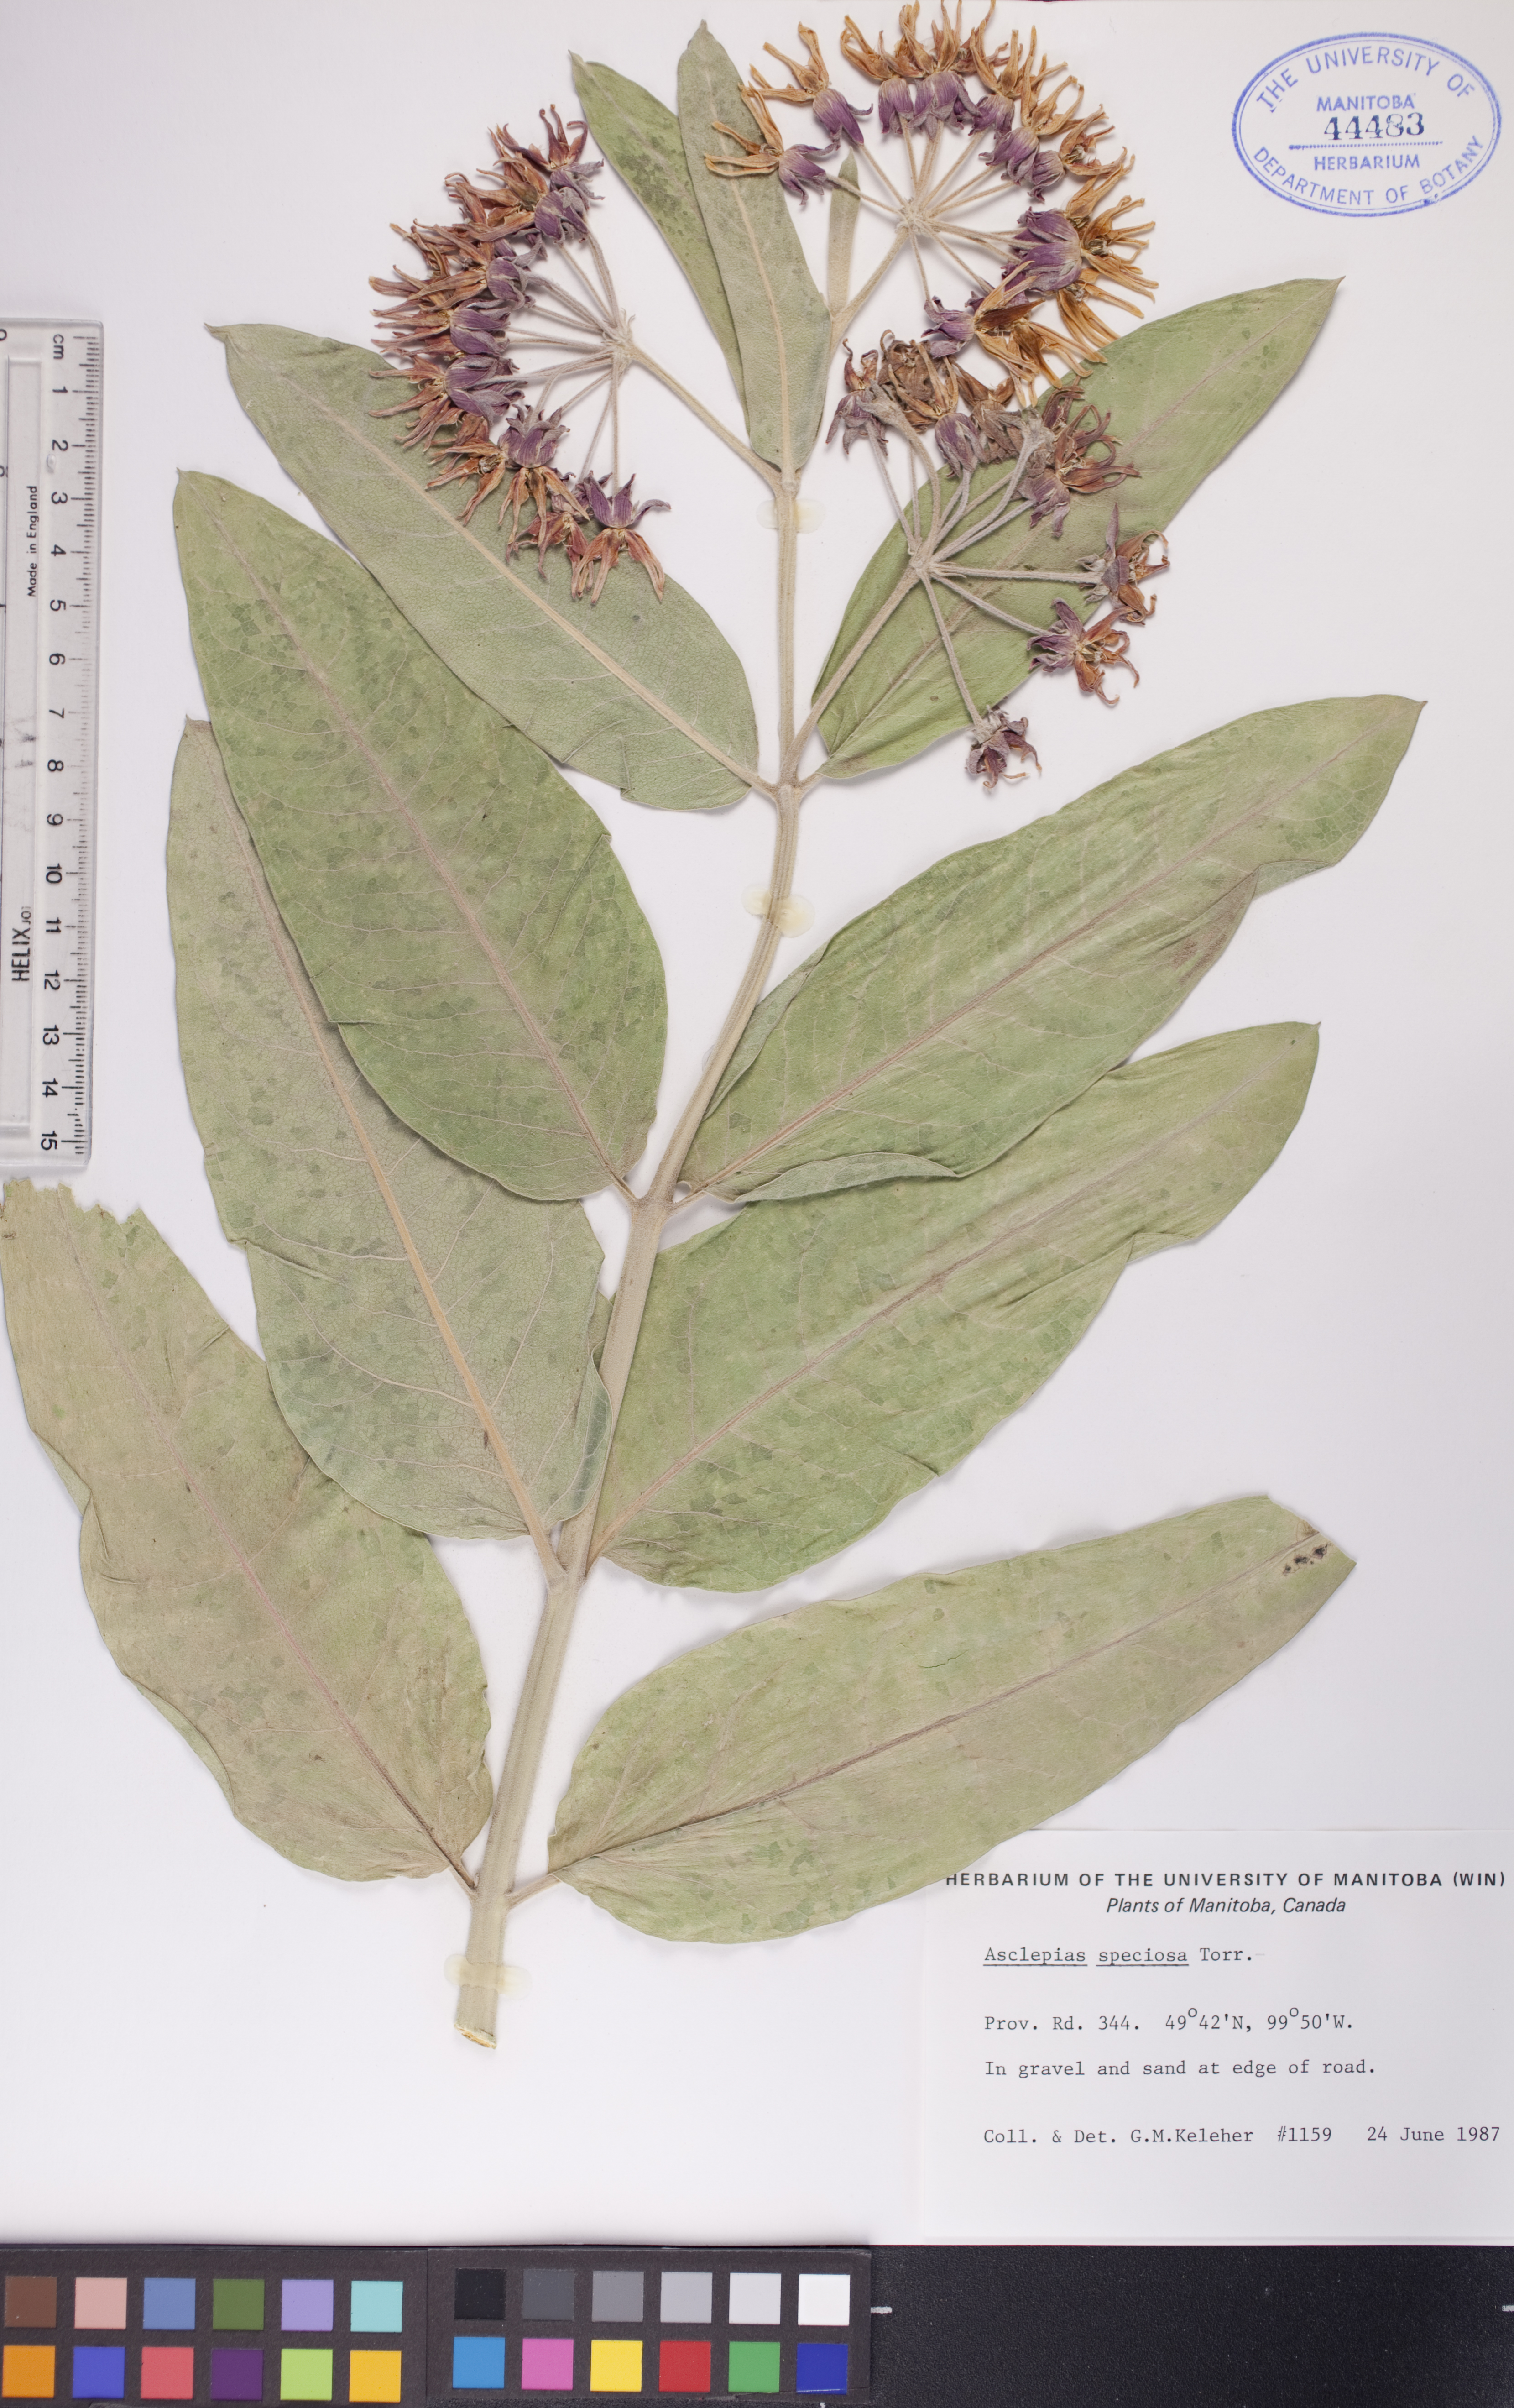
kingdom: Plantae
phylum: Tracheophyta
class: Magnoliopsida
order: Gentianales
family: Apocynaceae
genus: Asclepias
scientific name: Asclepias speciosa
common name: Showy milkweed
